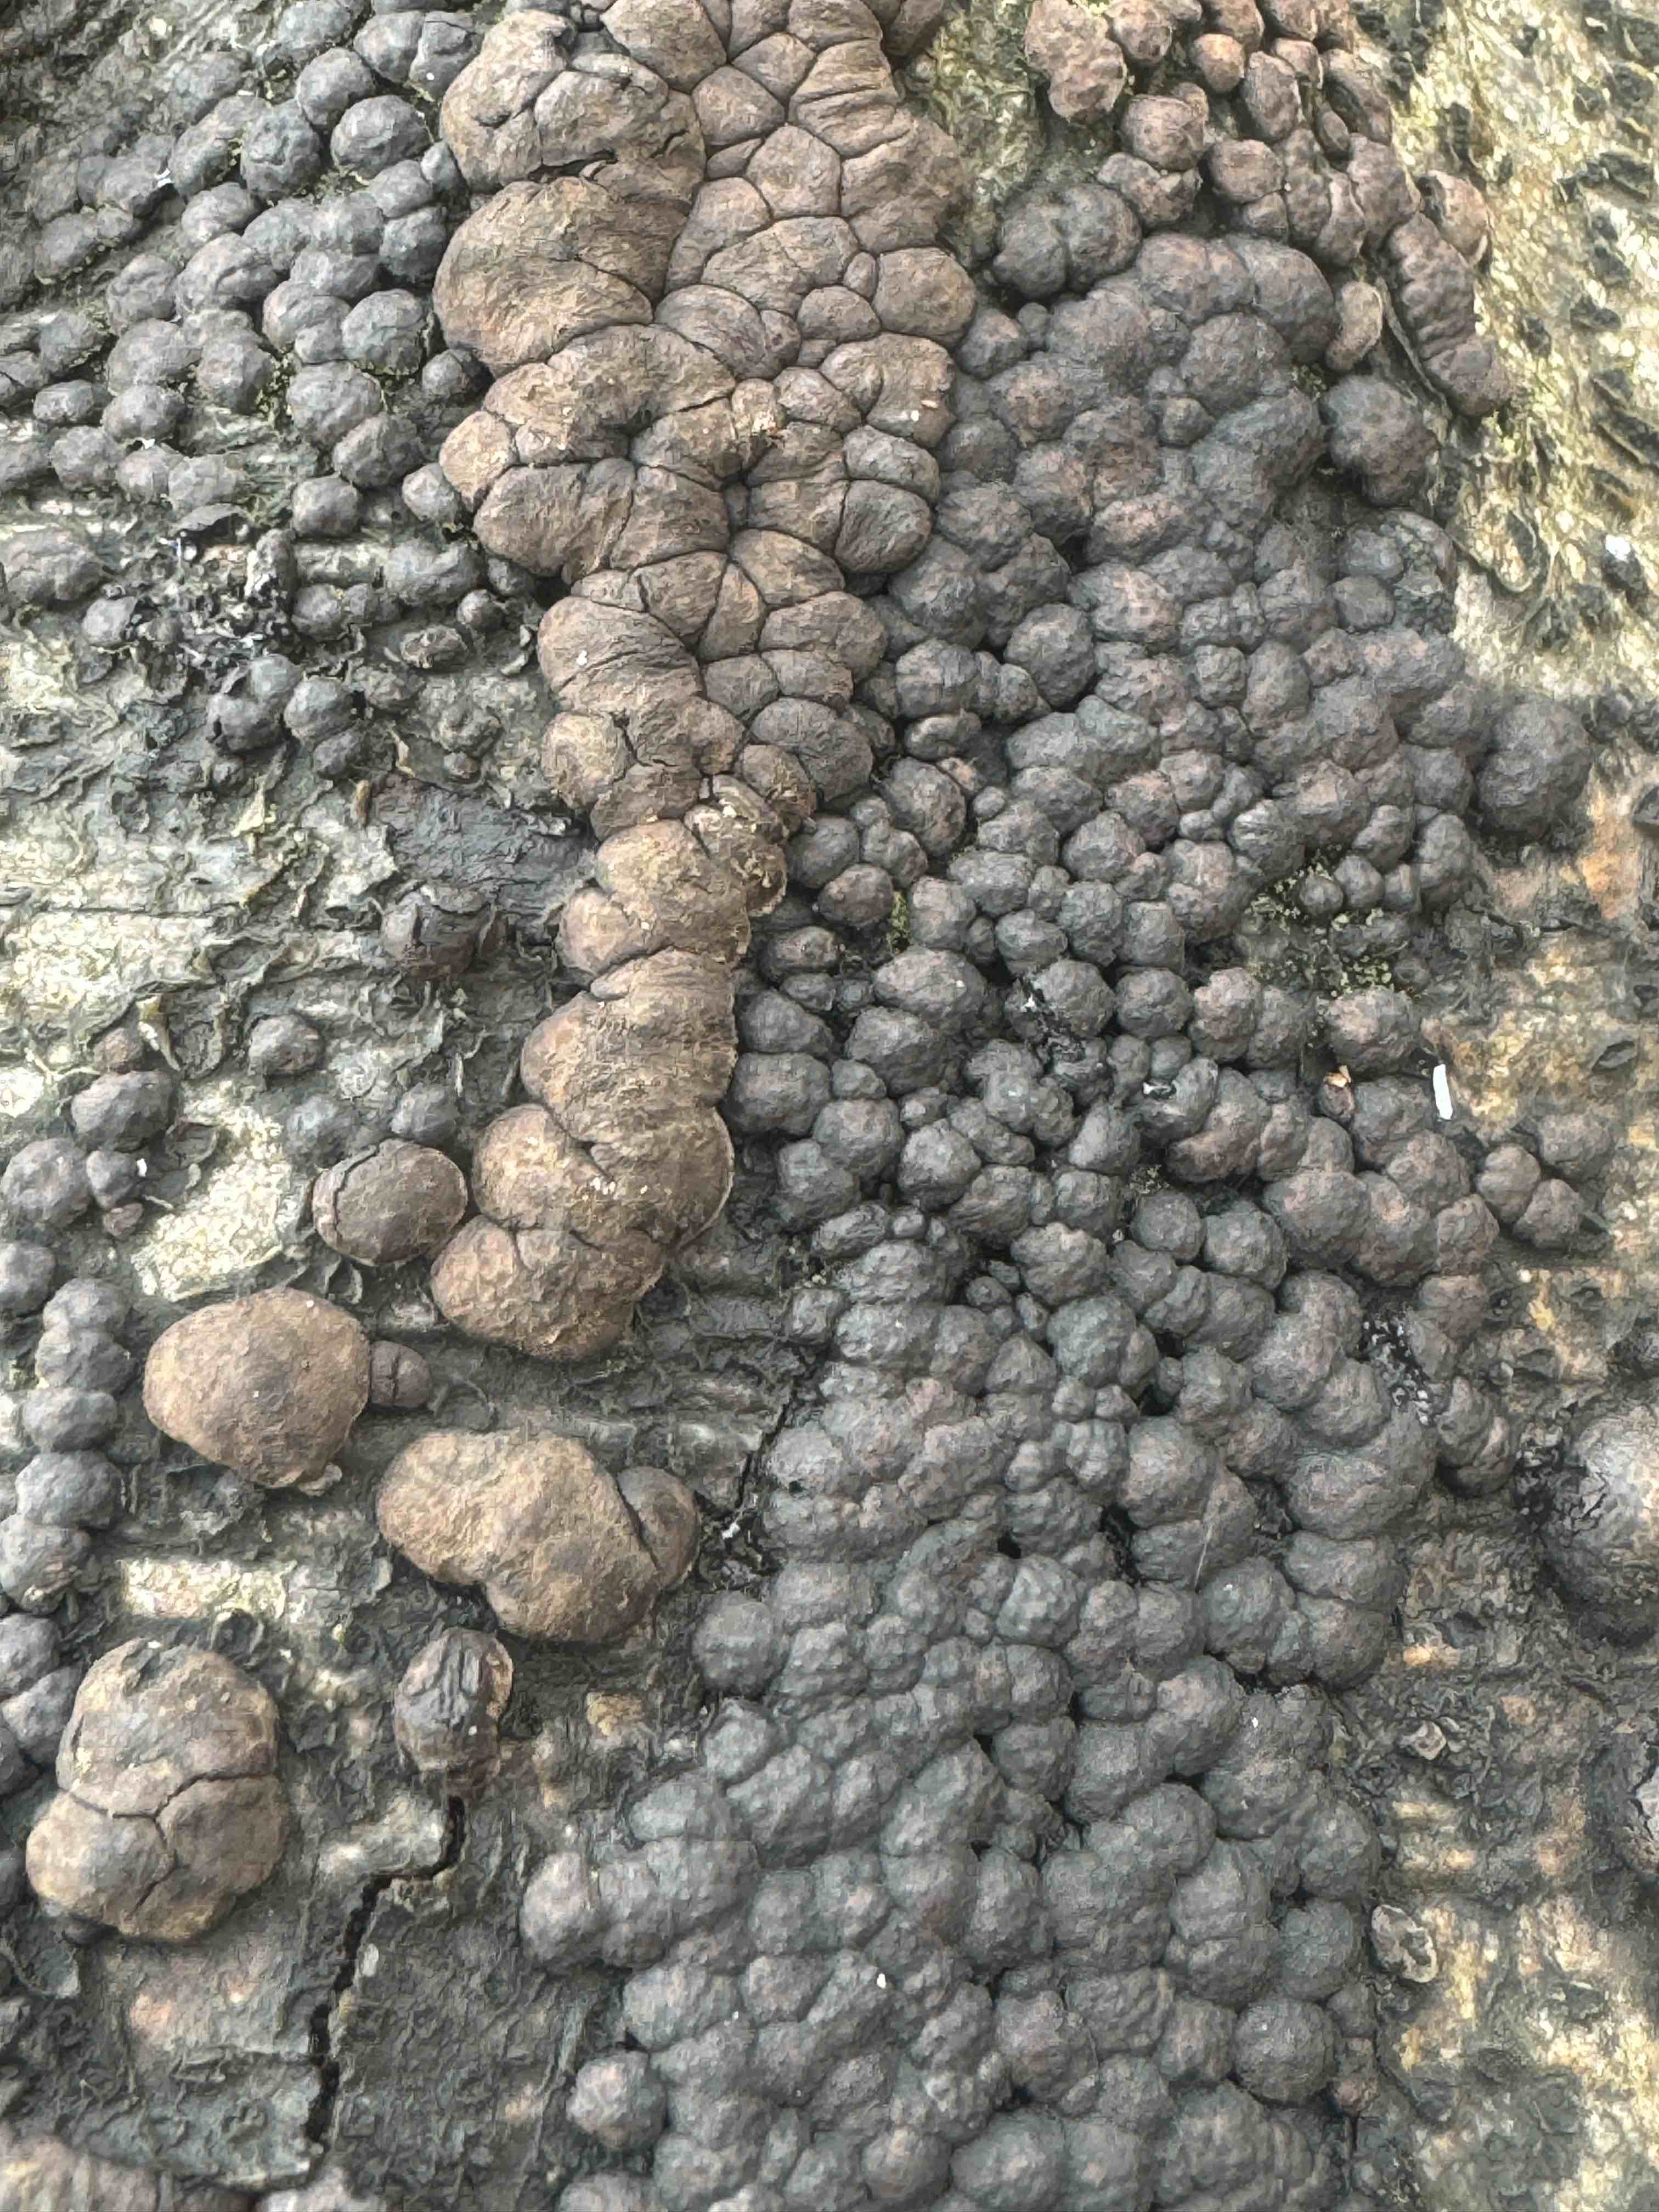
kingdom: Fungi
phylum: Ascomycota
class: Sordariomycetes
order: Xylariales
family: Hypoxylaceae
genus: Jackrogersella
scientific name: Jackrogersella cohaerens
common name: sammenflydende kulbær
